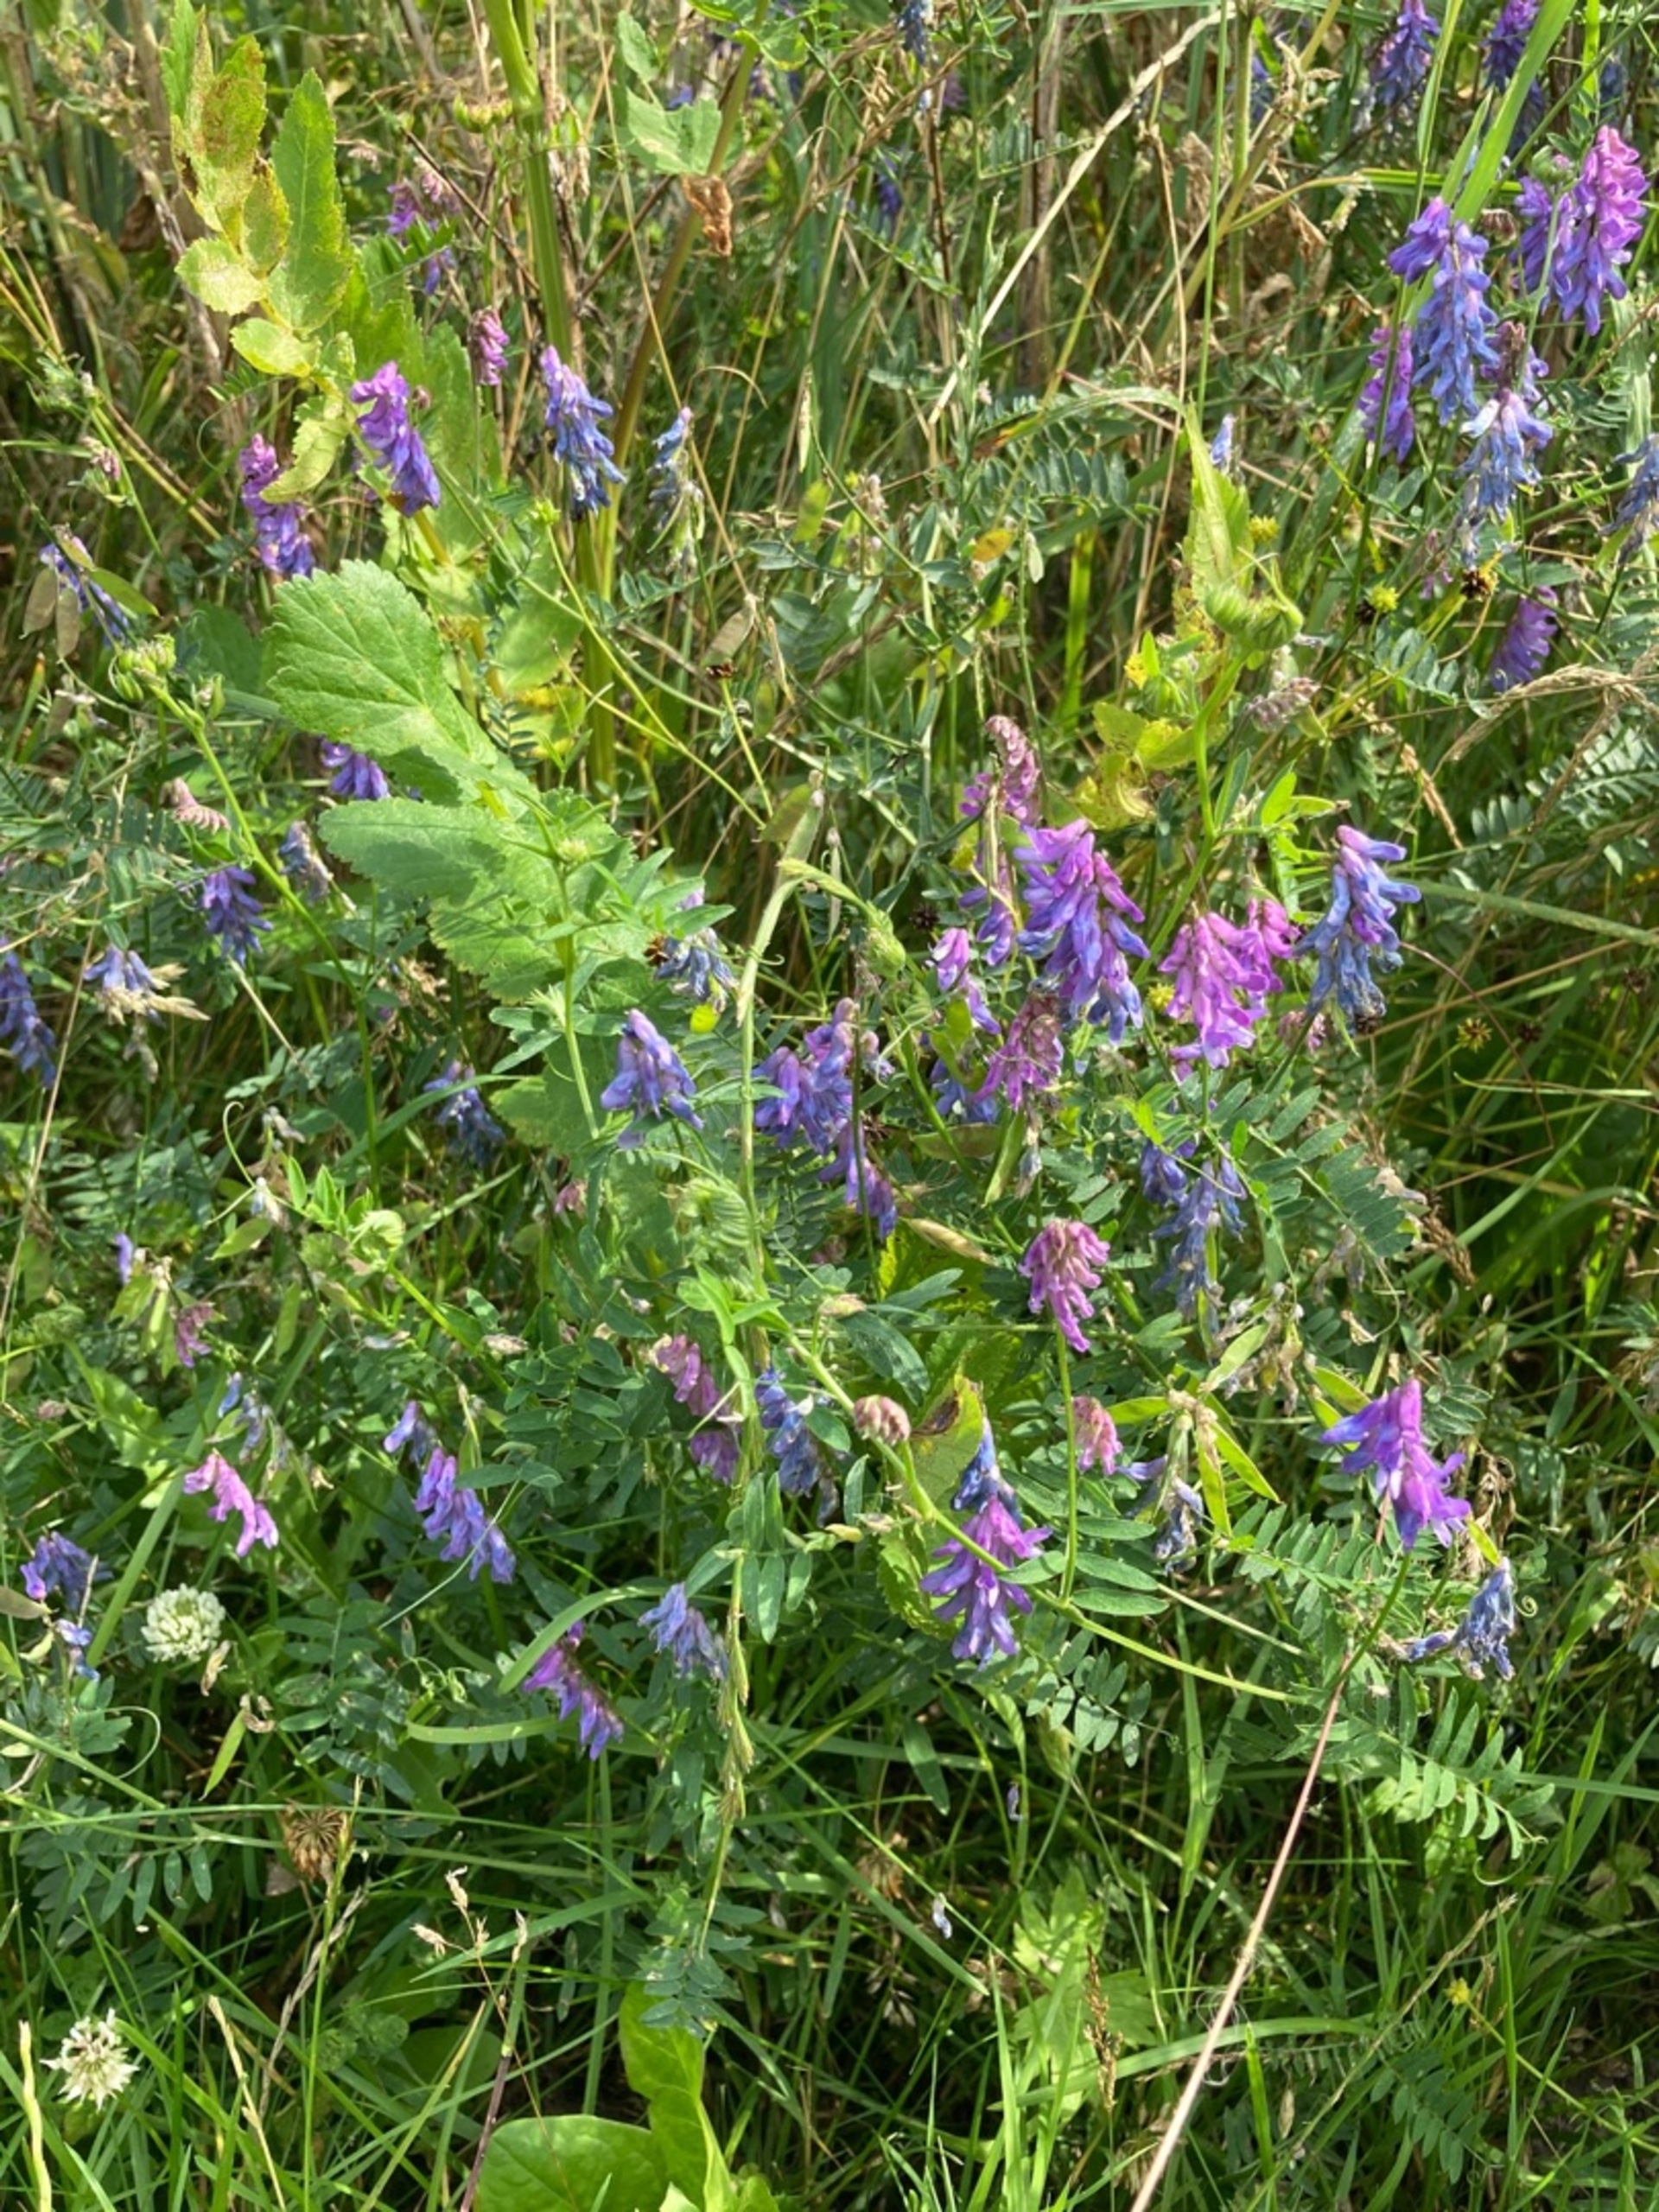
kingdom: Plantae
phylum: Tracheophyta
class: Magnoliopsida
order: Fabales
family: Fabaceae
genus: Vicia
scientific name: Vicia cracca
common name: Muse-vikke
